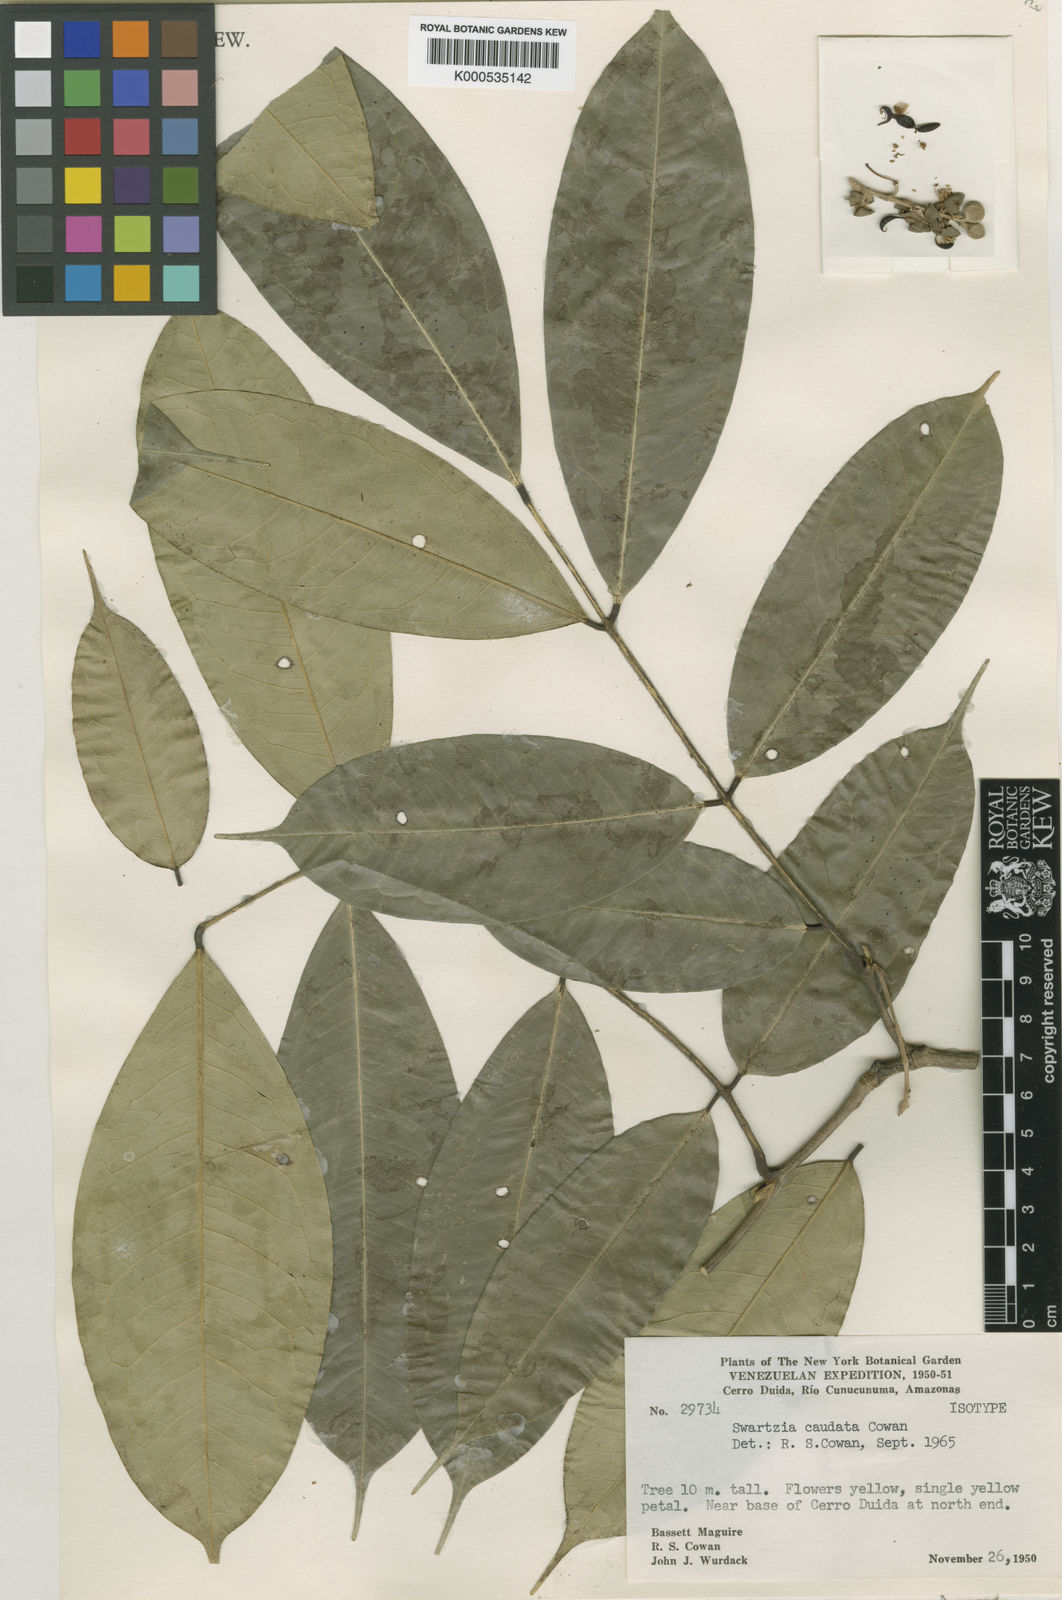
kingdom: Plantae
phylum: Tracheophyta
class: Magnoliopsida
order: Fabales
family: Fabaceae
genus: Swartzia
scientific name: Swartzia caudata
